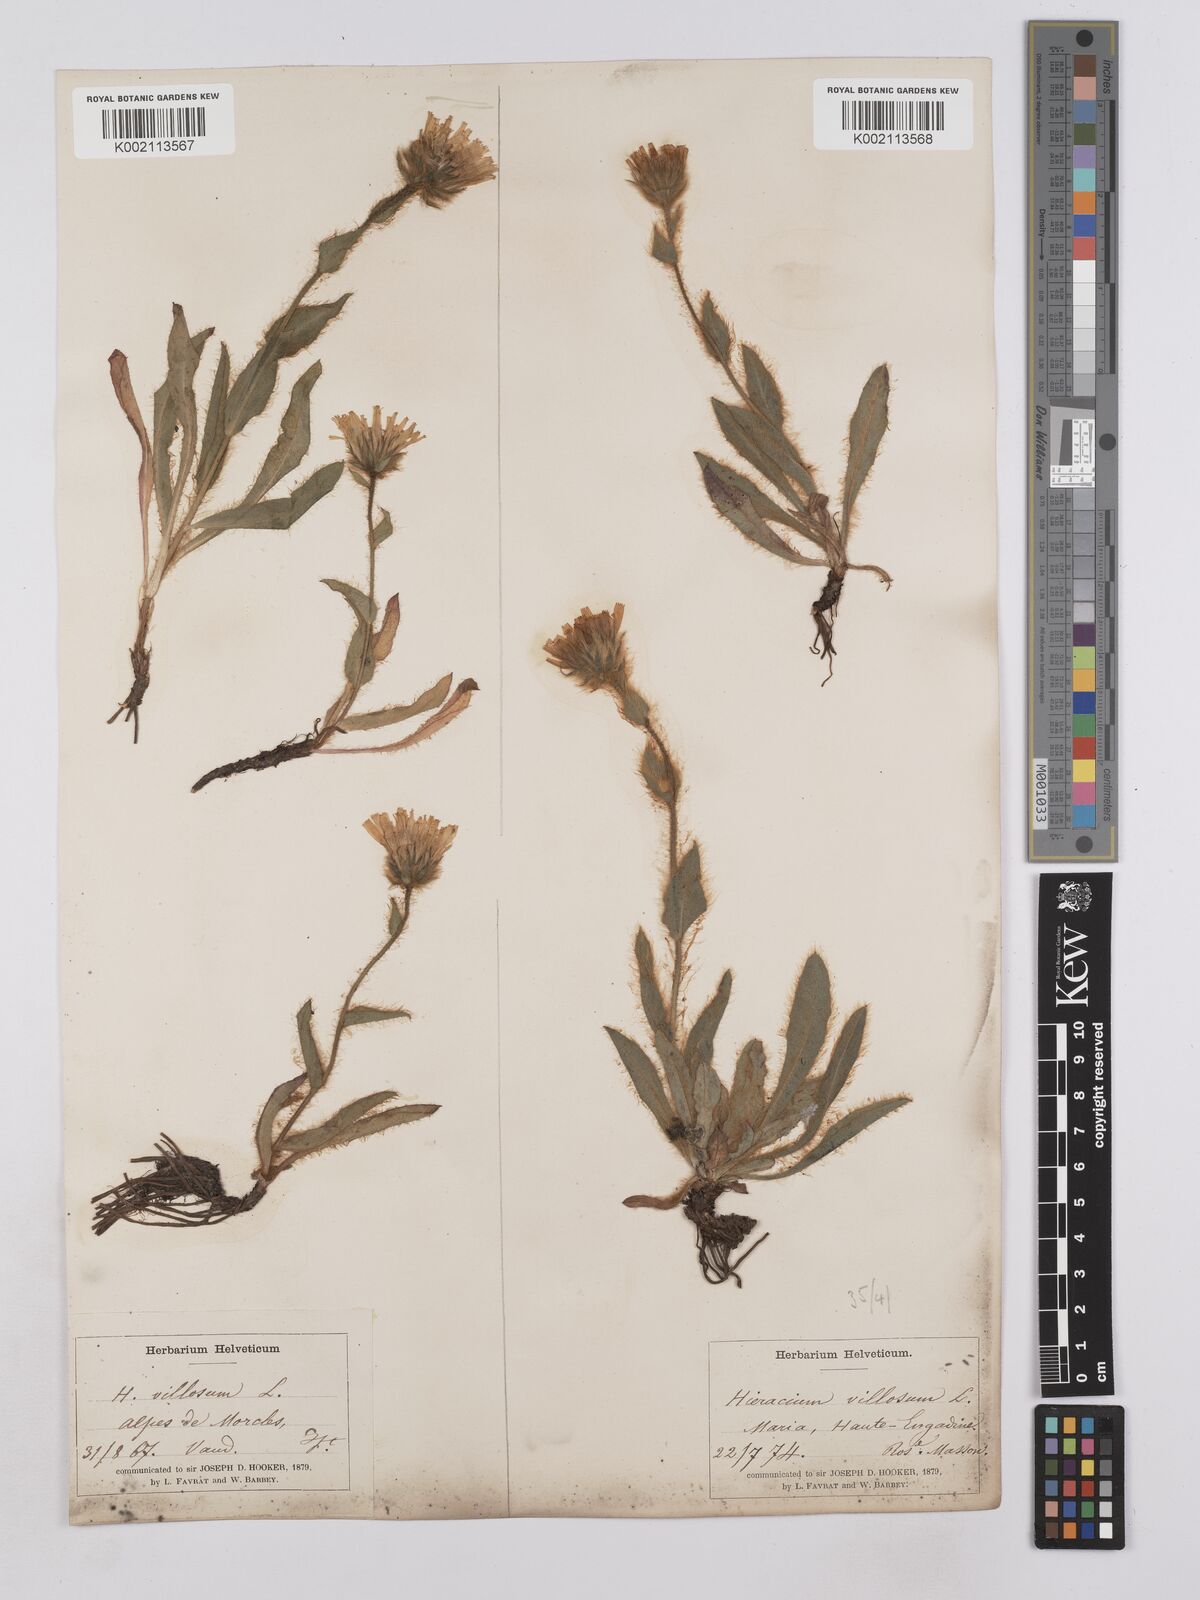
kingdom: Plantae
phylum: Tracheophyta
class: Magnoliopsida
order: Asterales
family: Asteraceae
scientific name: Asteraceae
